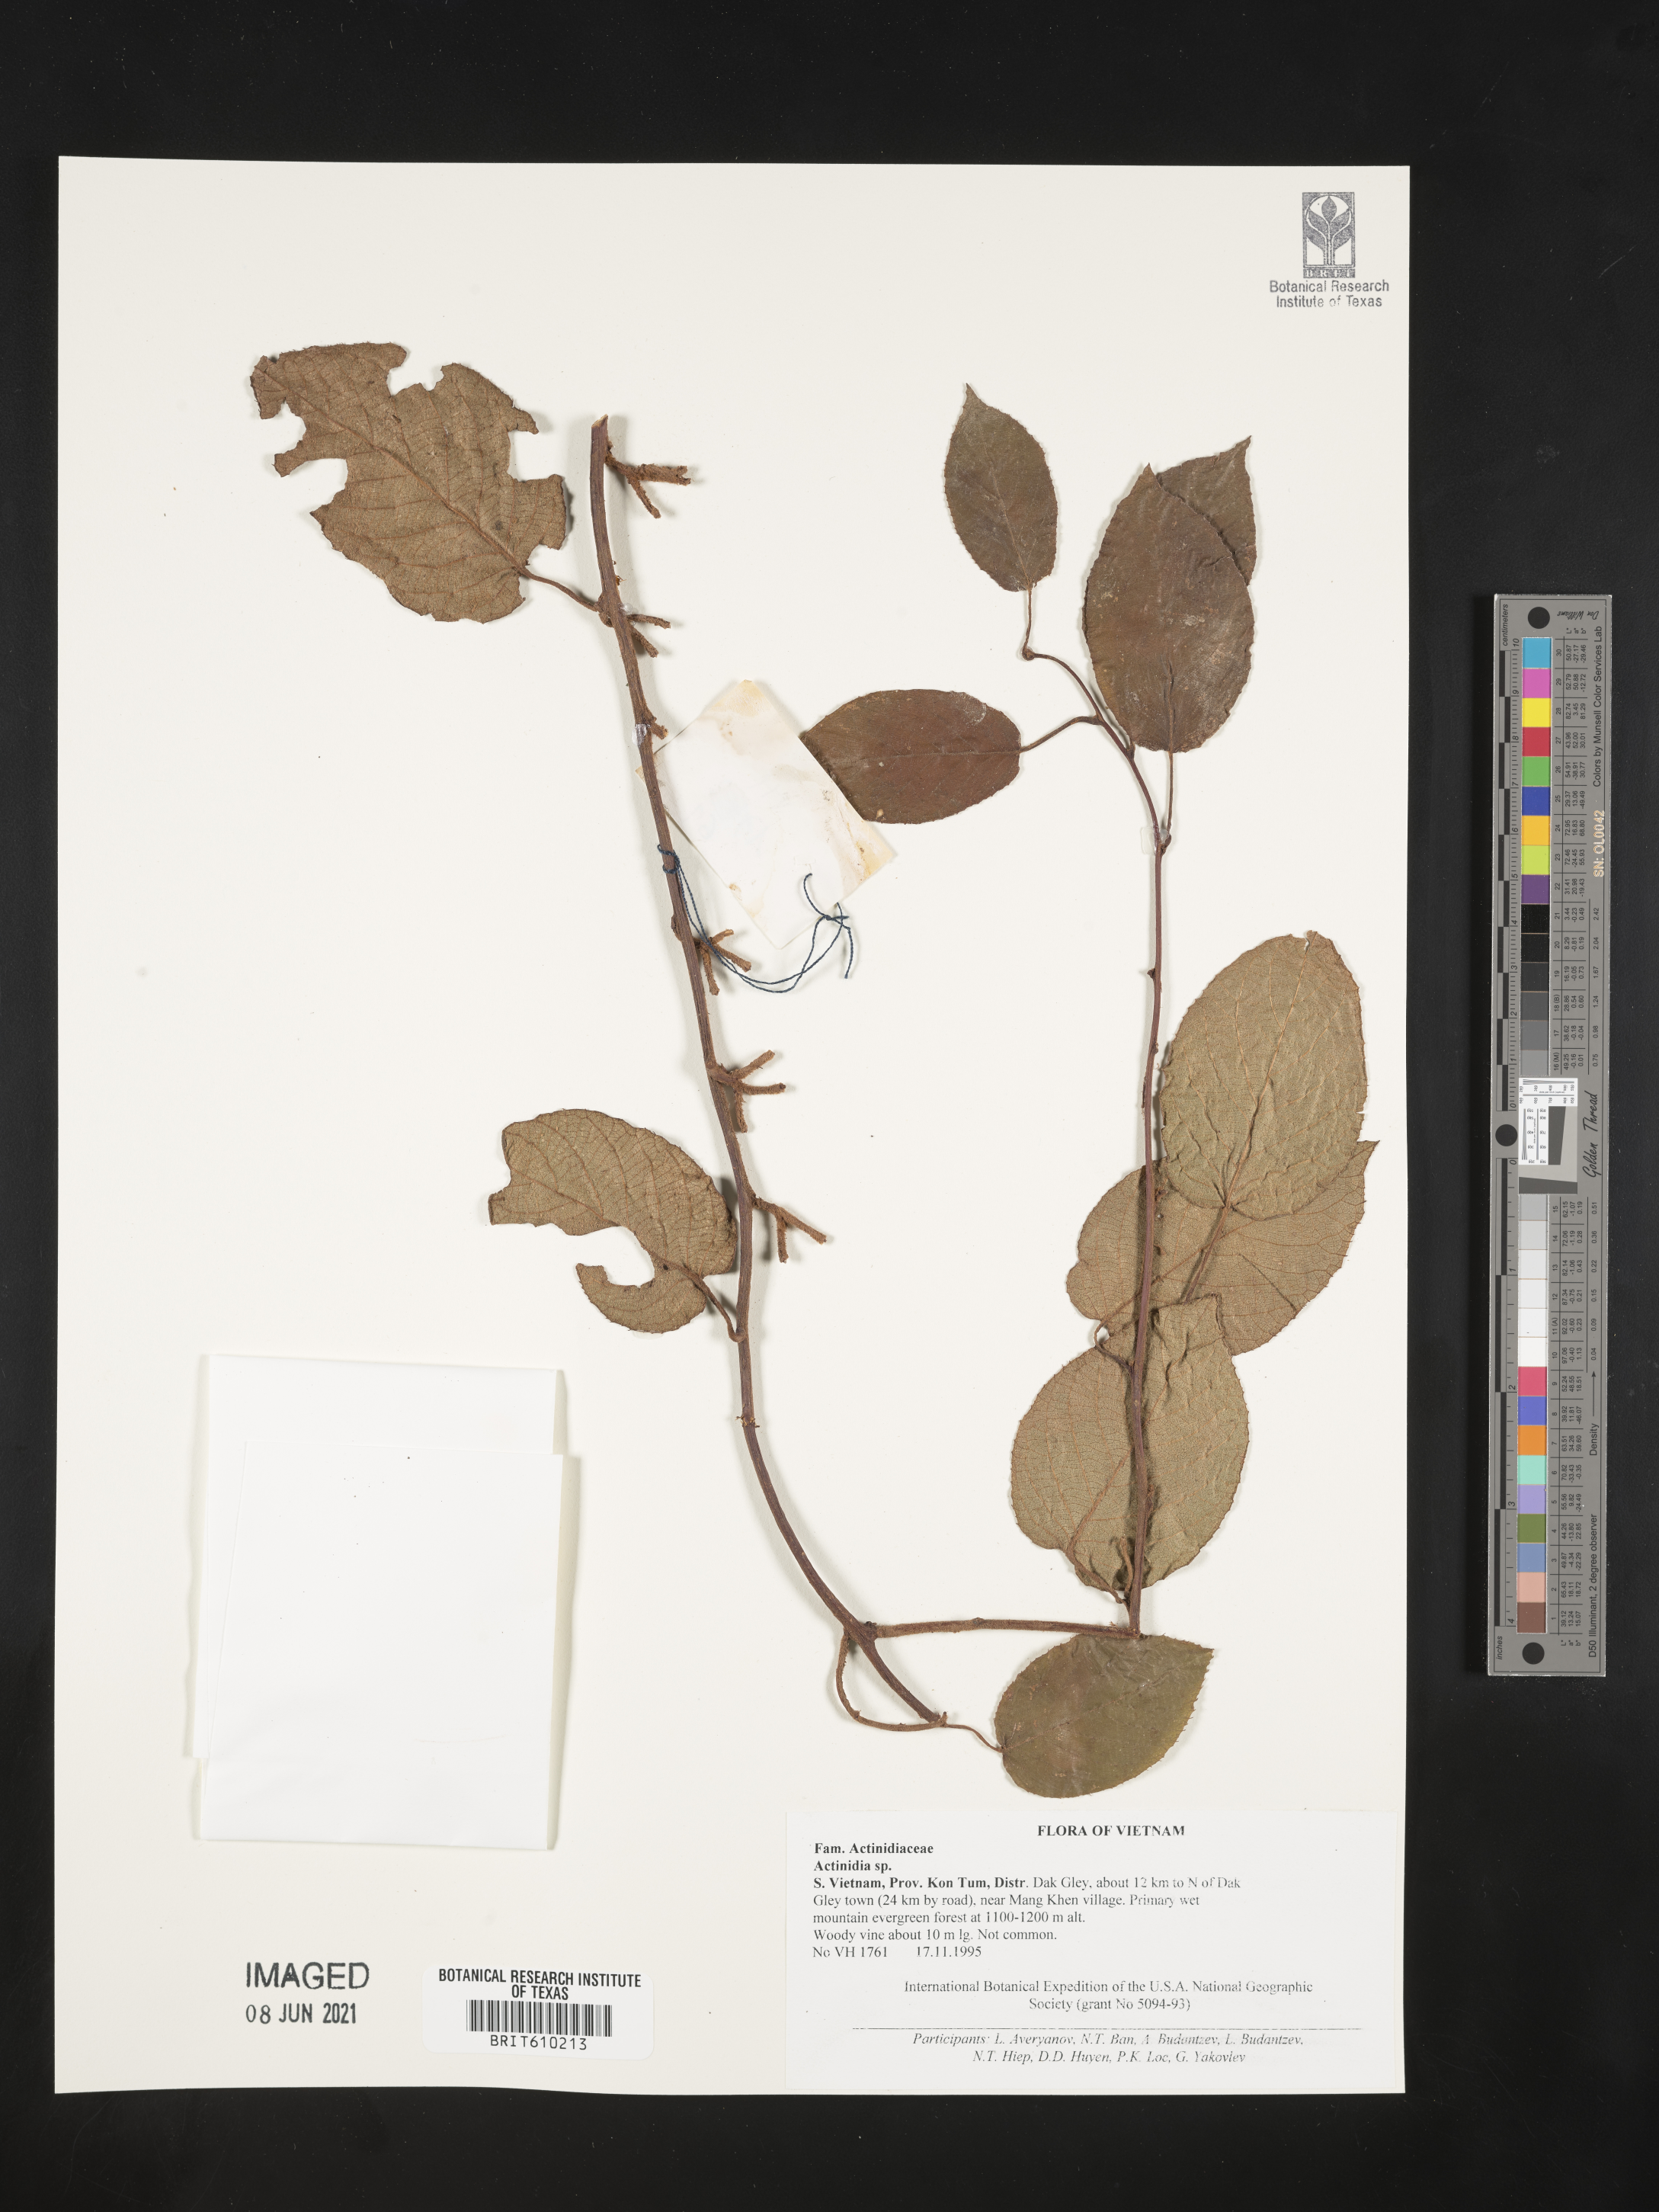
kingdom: Plantae
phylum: Tracheophyta
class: Magnoliopsida
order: Ericales
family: Actinidiaceae
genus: Actinidia
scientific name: Actinidia
